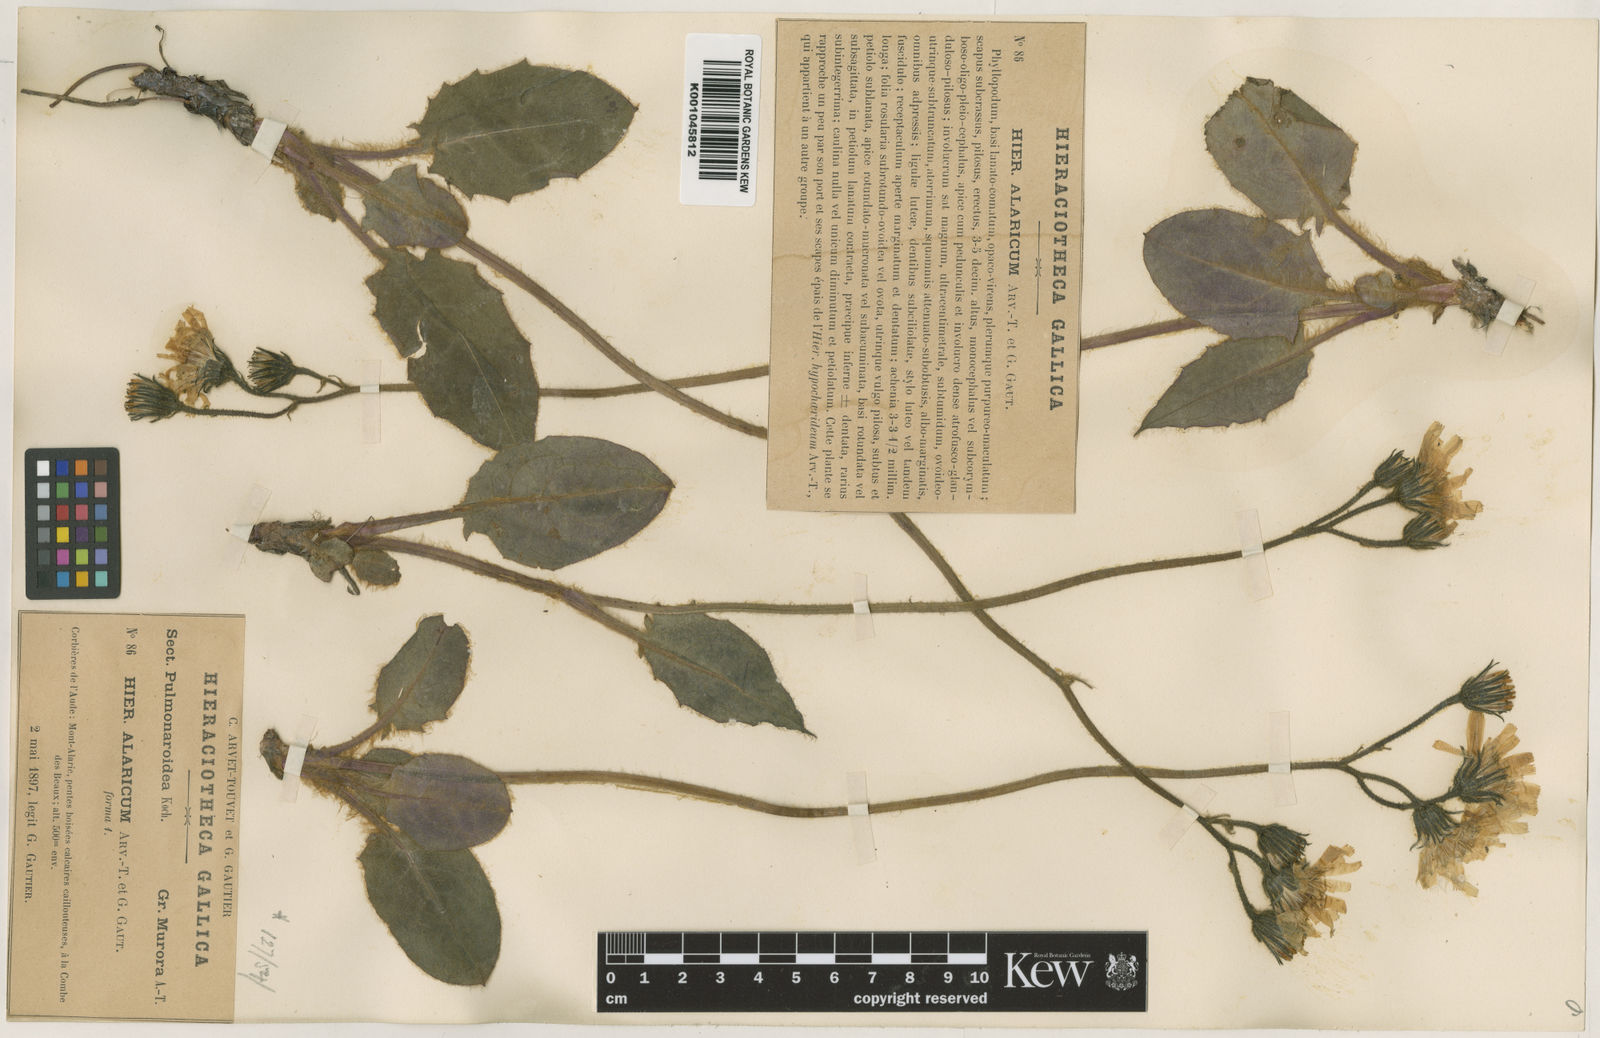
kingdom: Plantae
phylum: Tracheophyta
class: Magnoliopsida
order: Asterales
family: Asteraceae
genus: Hieracium
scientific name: Hieracium glaucinum
